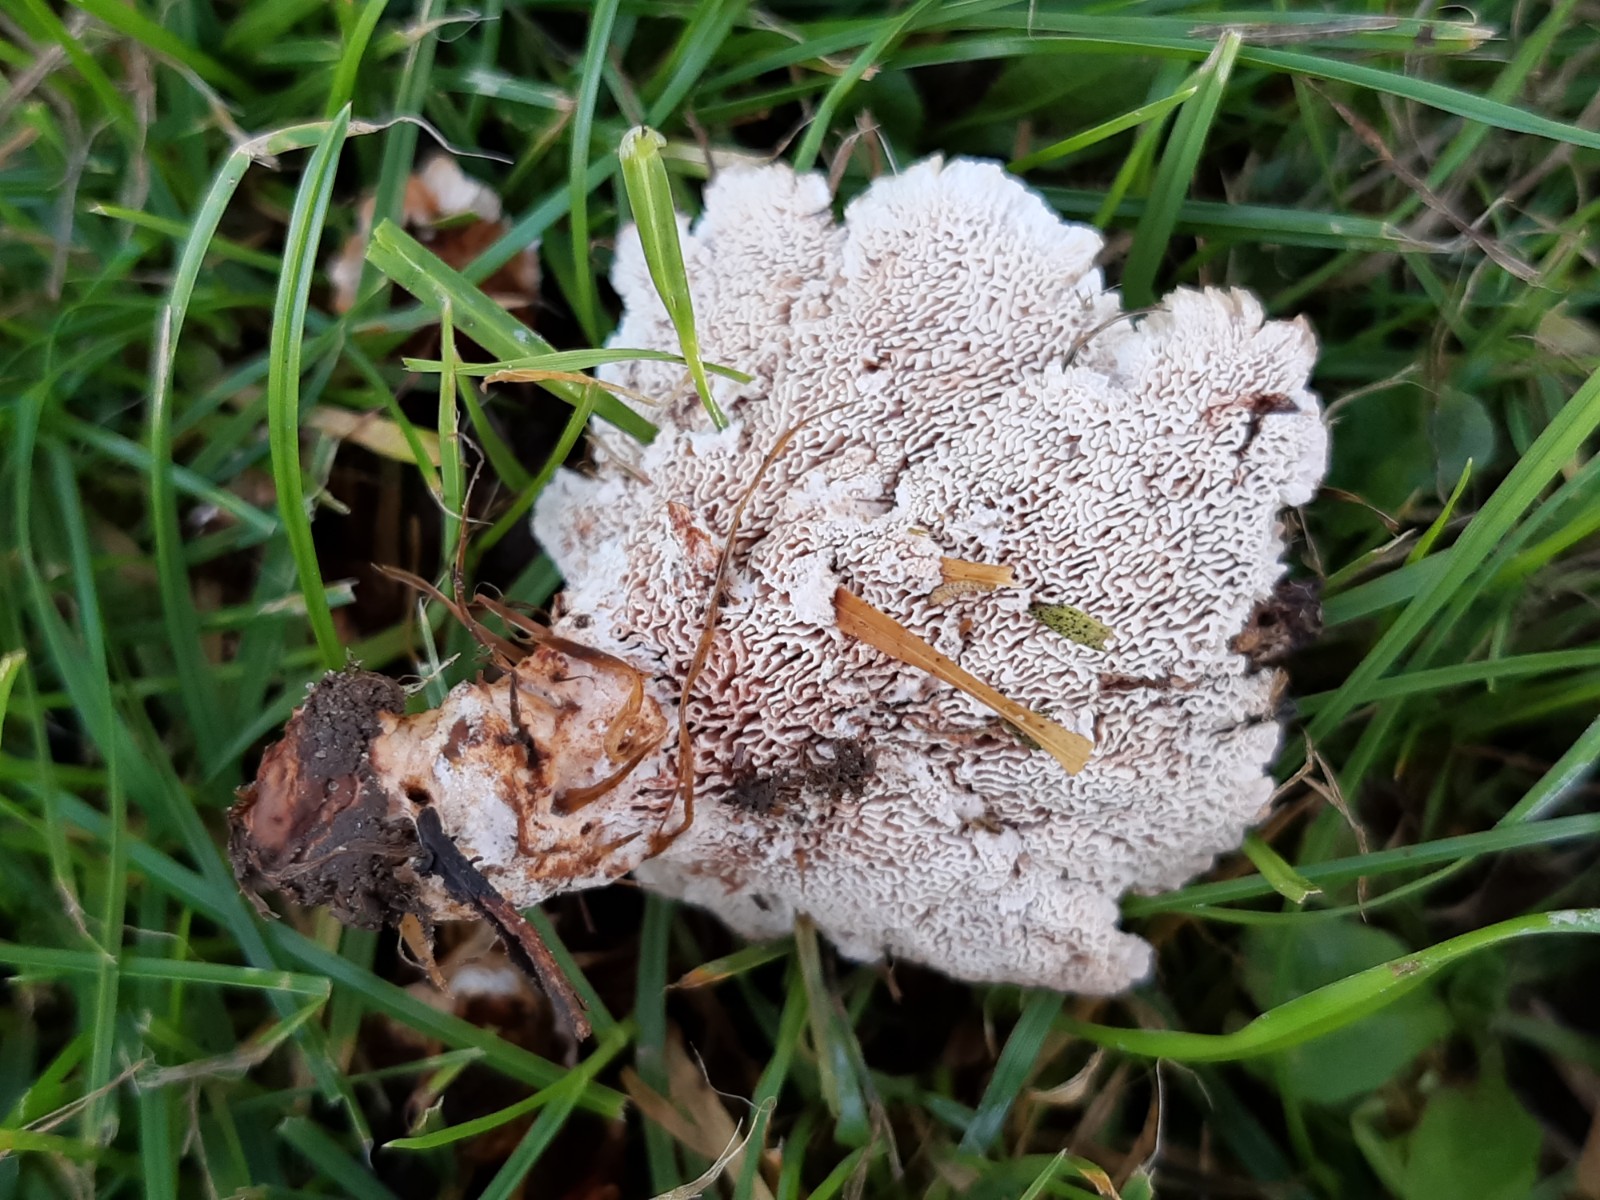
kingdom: Fungi
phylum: Basidiomycota
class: Agaricomycetes
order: Polyporales
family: Podoscyphaceae
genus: Abortiporus
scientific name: Abortiporus biennis
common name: rødmende pjalteporesvamp
